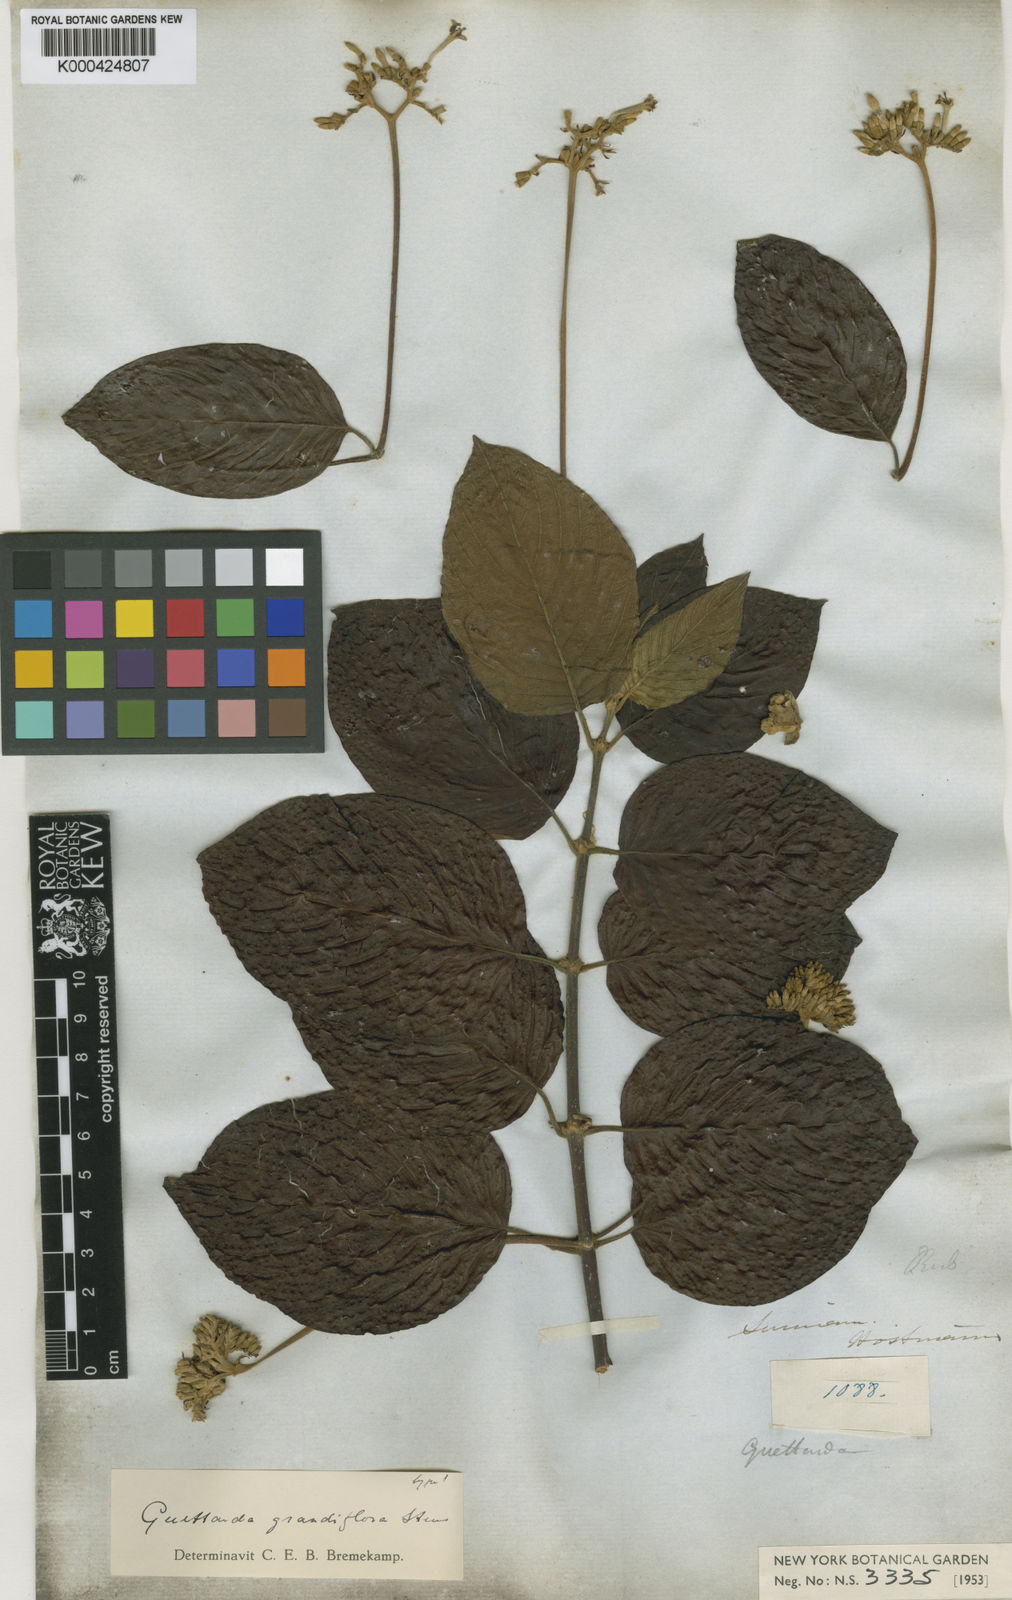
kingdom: Plantae
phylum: Tracheophyta
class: Magnoliopsida
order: Gentianales
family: Rubiaceae
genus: Guettarda
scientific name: Guettarda aromatica
